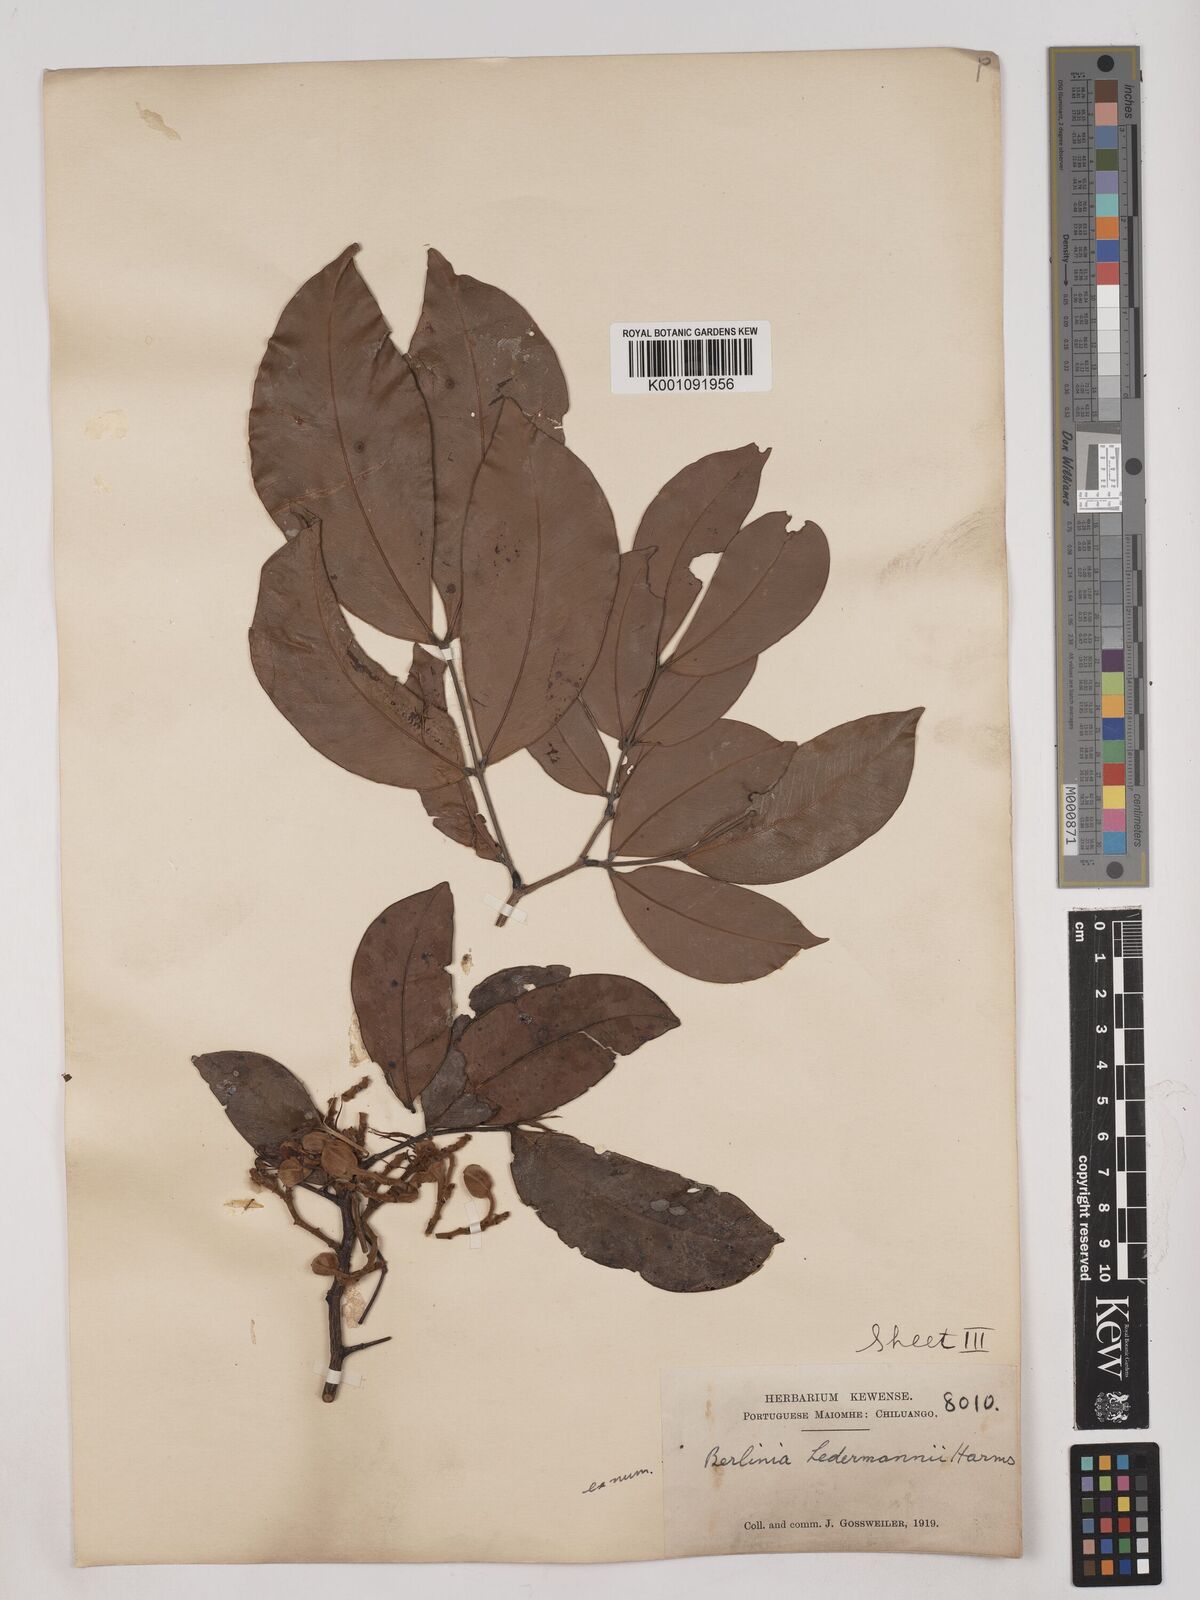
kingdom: Plantae
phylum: Tracheophyta
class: Magnoliopsida
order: Fabales
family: Fabaceae
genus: Julbernardia
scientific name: Julbernardia seretii
